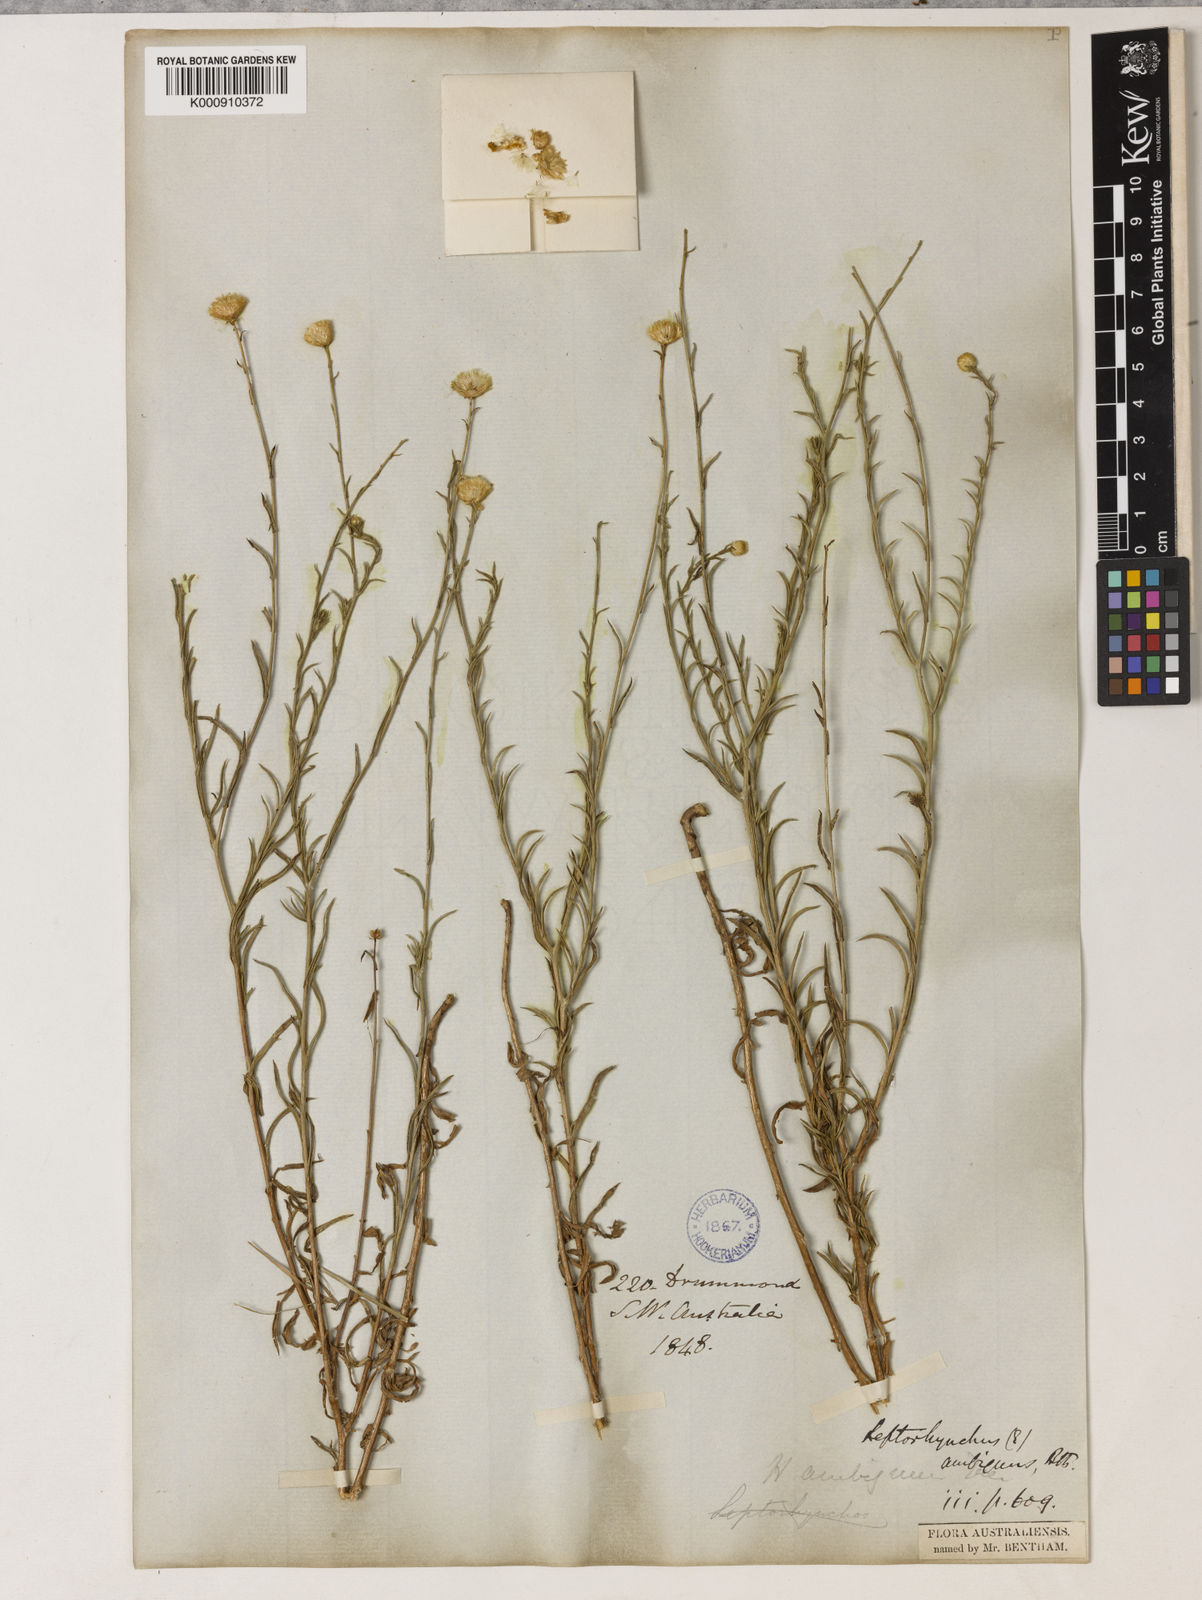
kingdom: Plantae
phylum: Tracheophyta
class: Magnoliopsida
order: Asterales
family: Asteraceae
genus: Leiocarpa
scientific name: Leiocarpa semicalva
